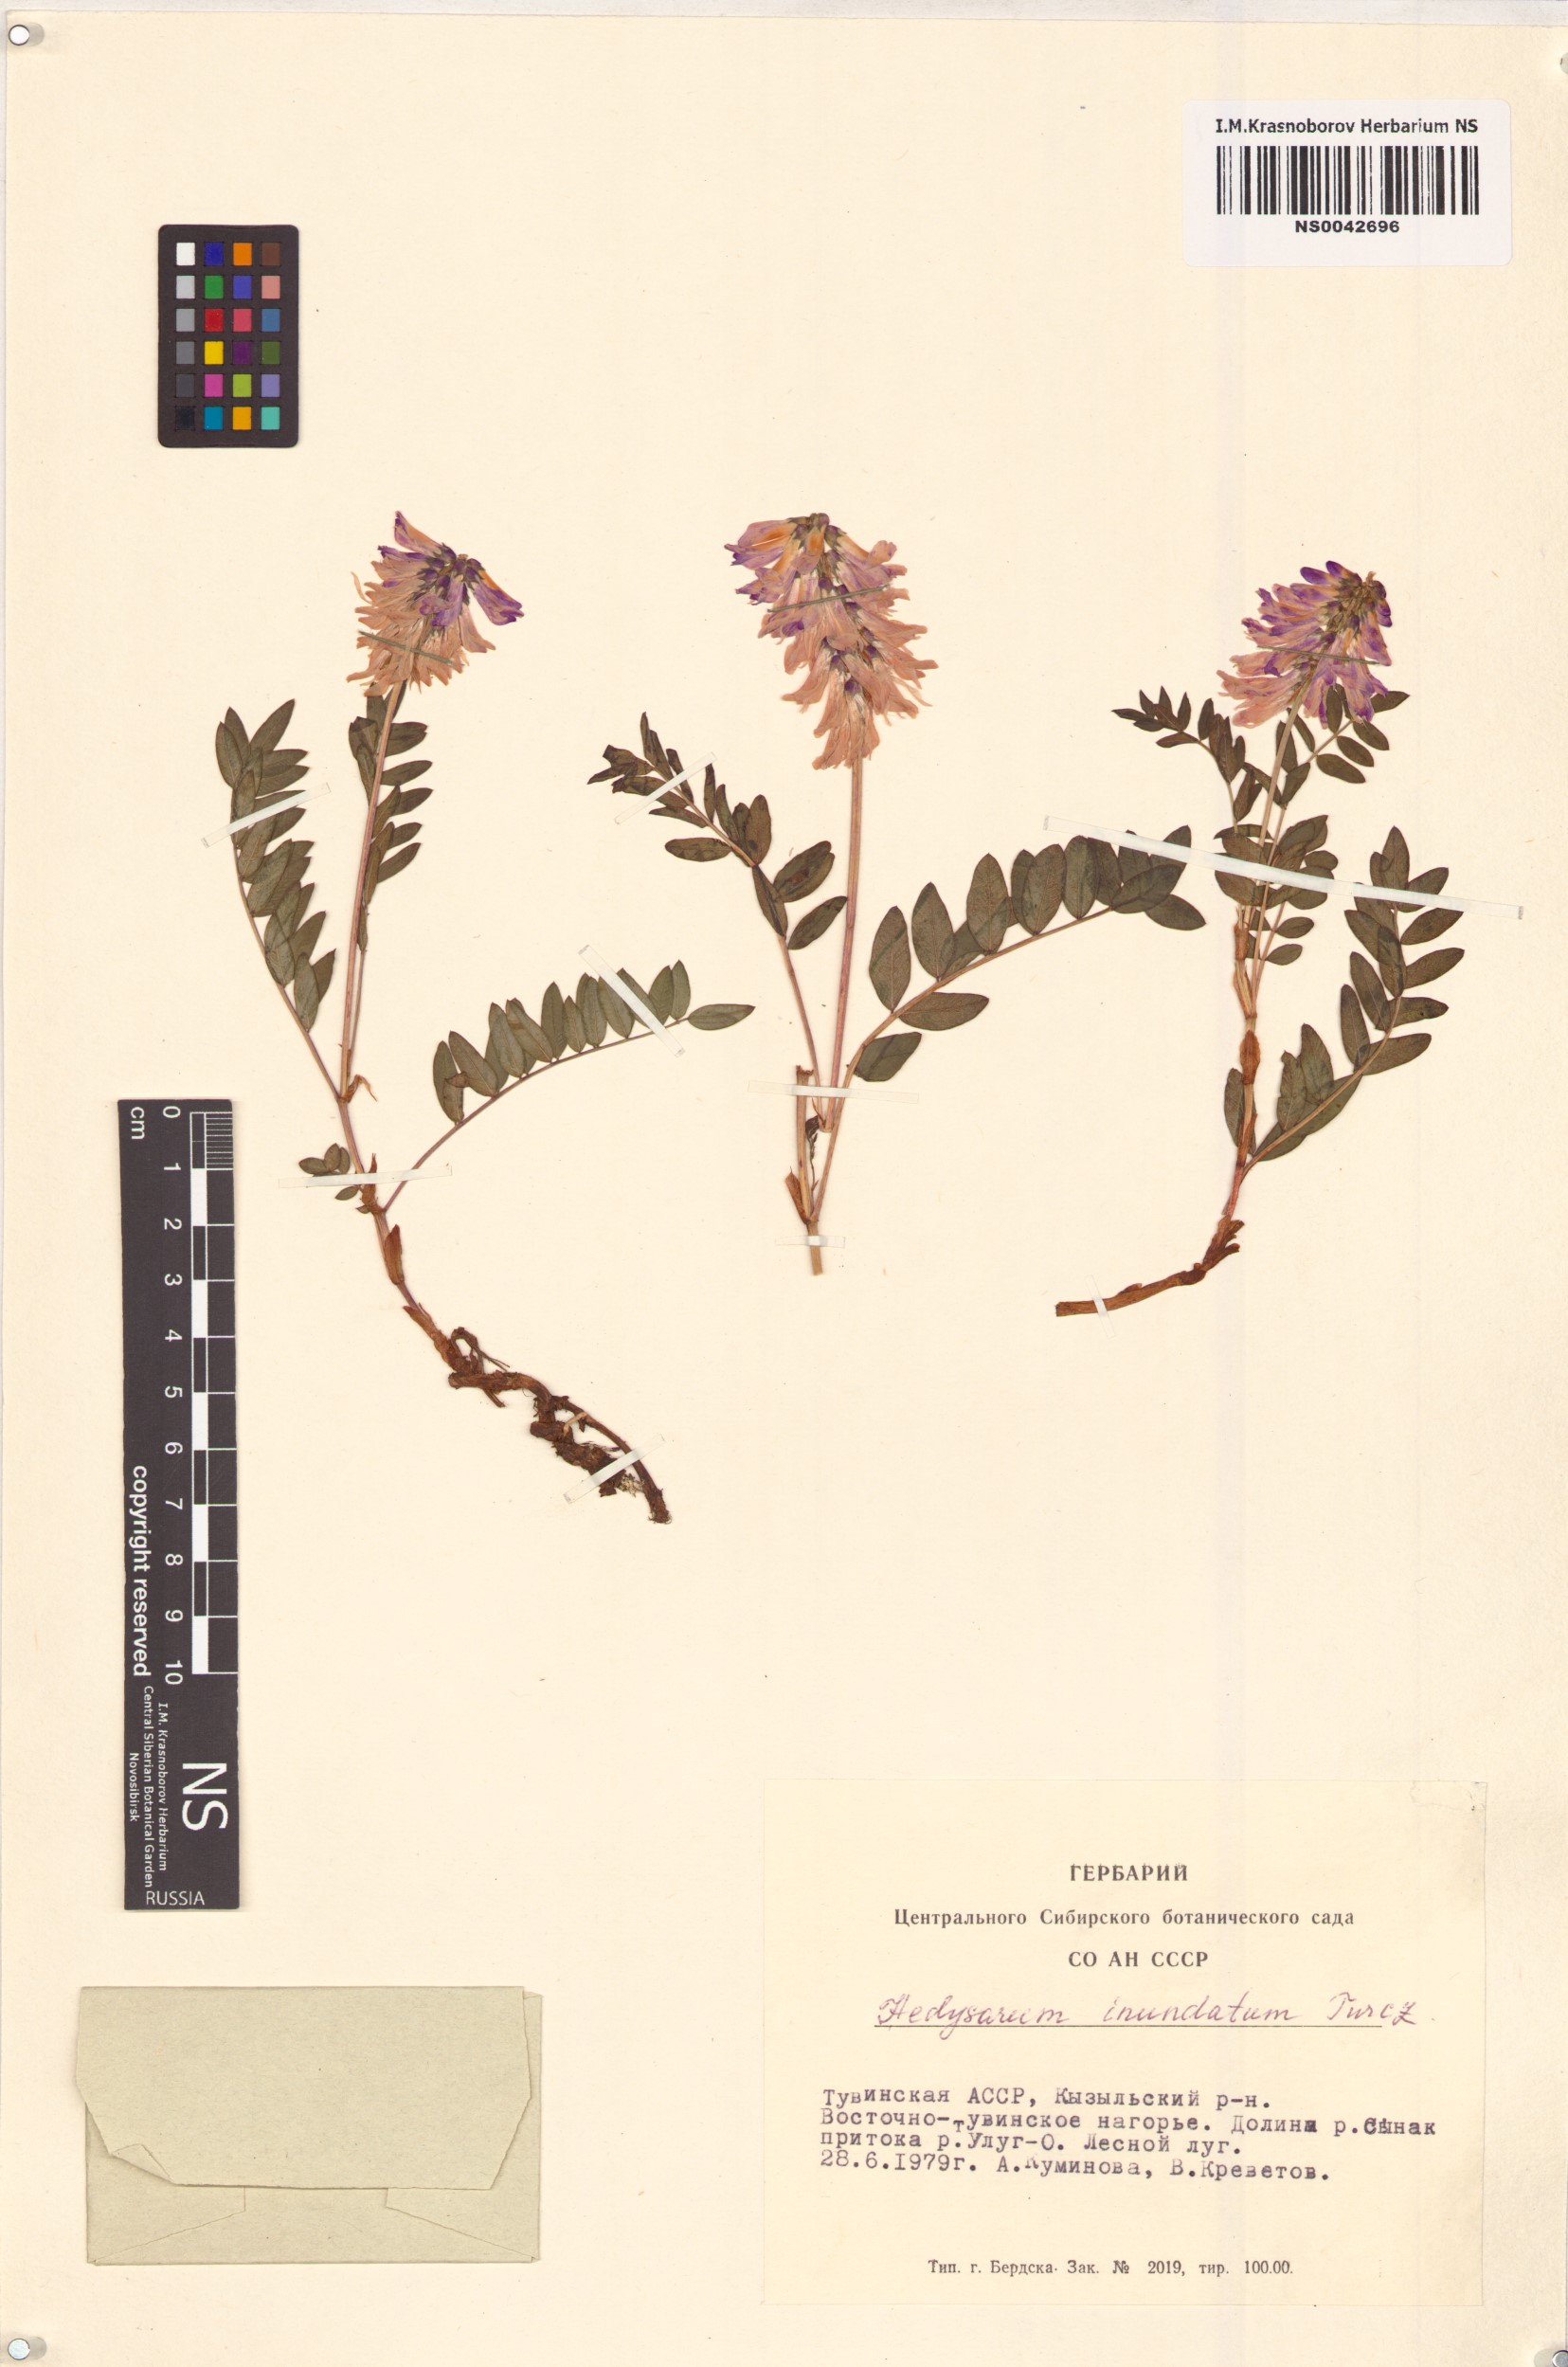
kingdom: Plantae
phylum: Tracheophyta
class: Magnoliopsida
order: Fabales
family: Fabaceae
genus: Hedysarum
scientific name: Hedysarum inundatum
